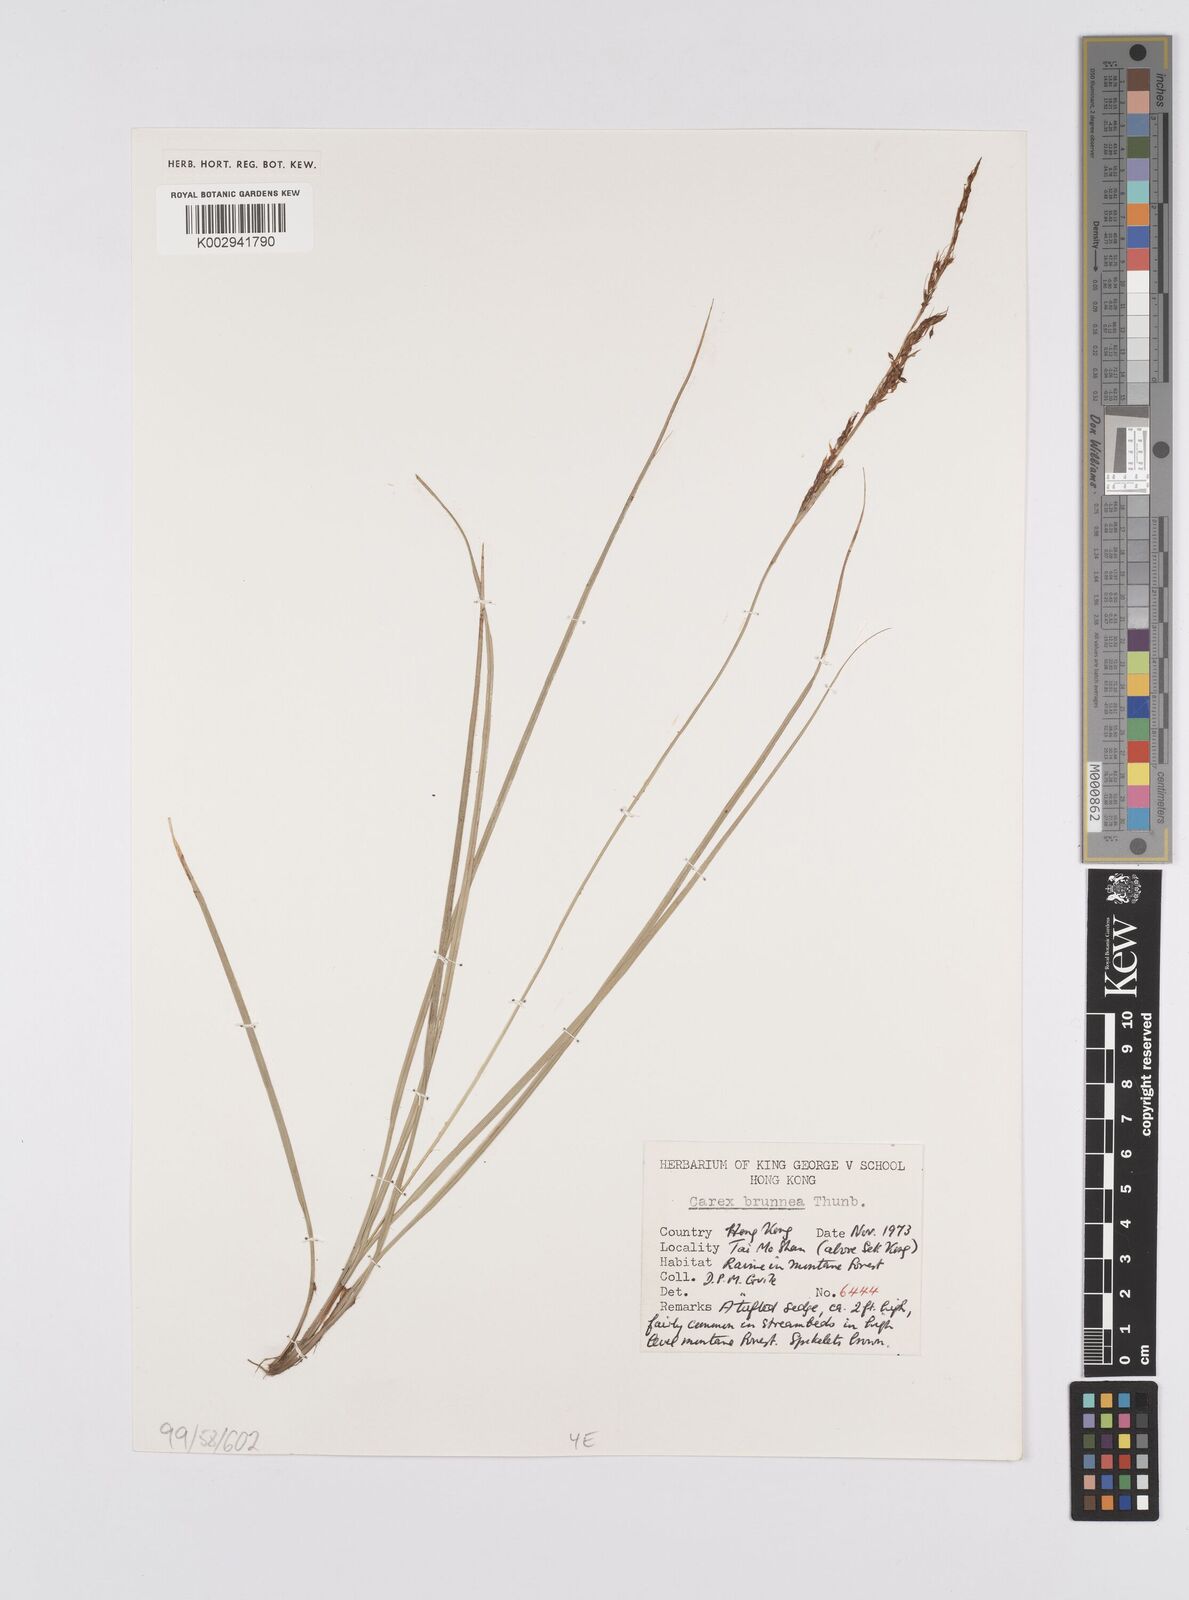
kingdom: Plantae
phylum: Tracheophyta
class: Liliopsida
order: Poales
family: Cyperaceae
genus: Carex
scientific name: Carex brunnea
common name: Greater brown sedge
